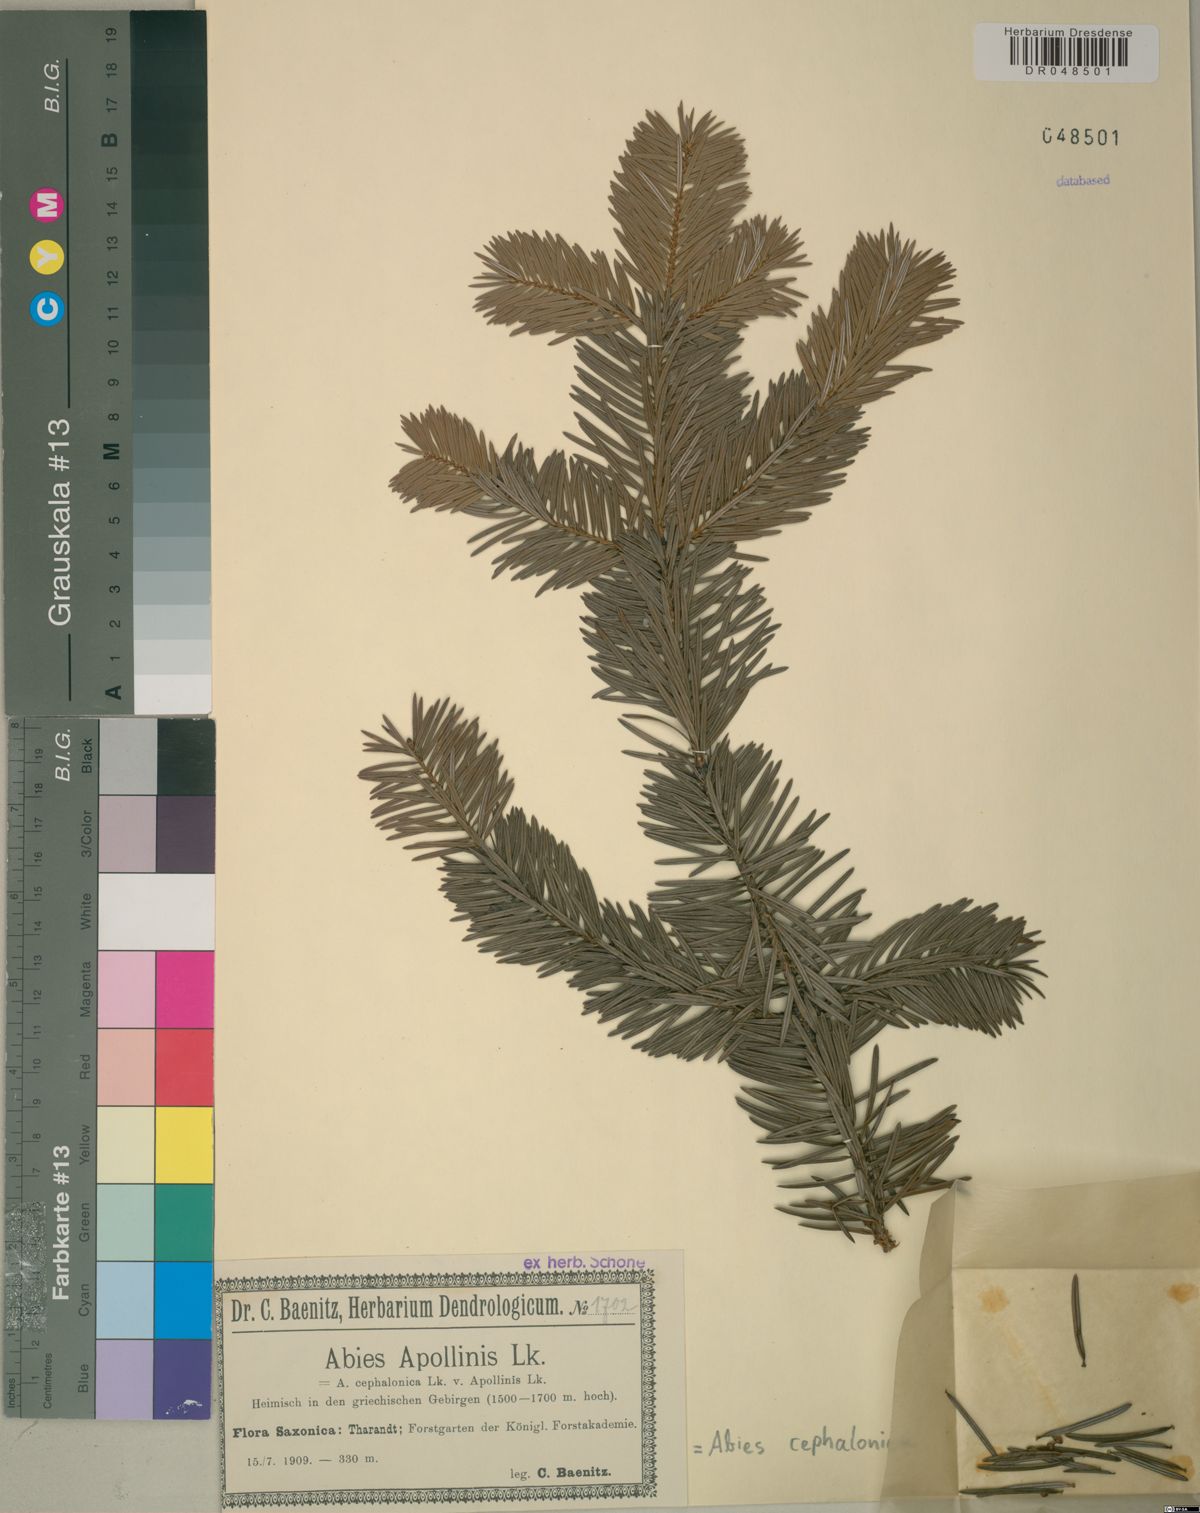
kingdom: Plantae
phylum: Tracheophyta
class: Pinopsida
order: Pinales
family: Pinaceae
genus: Abies
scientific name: Abies cephalonica
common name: Greek fir
